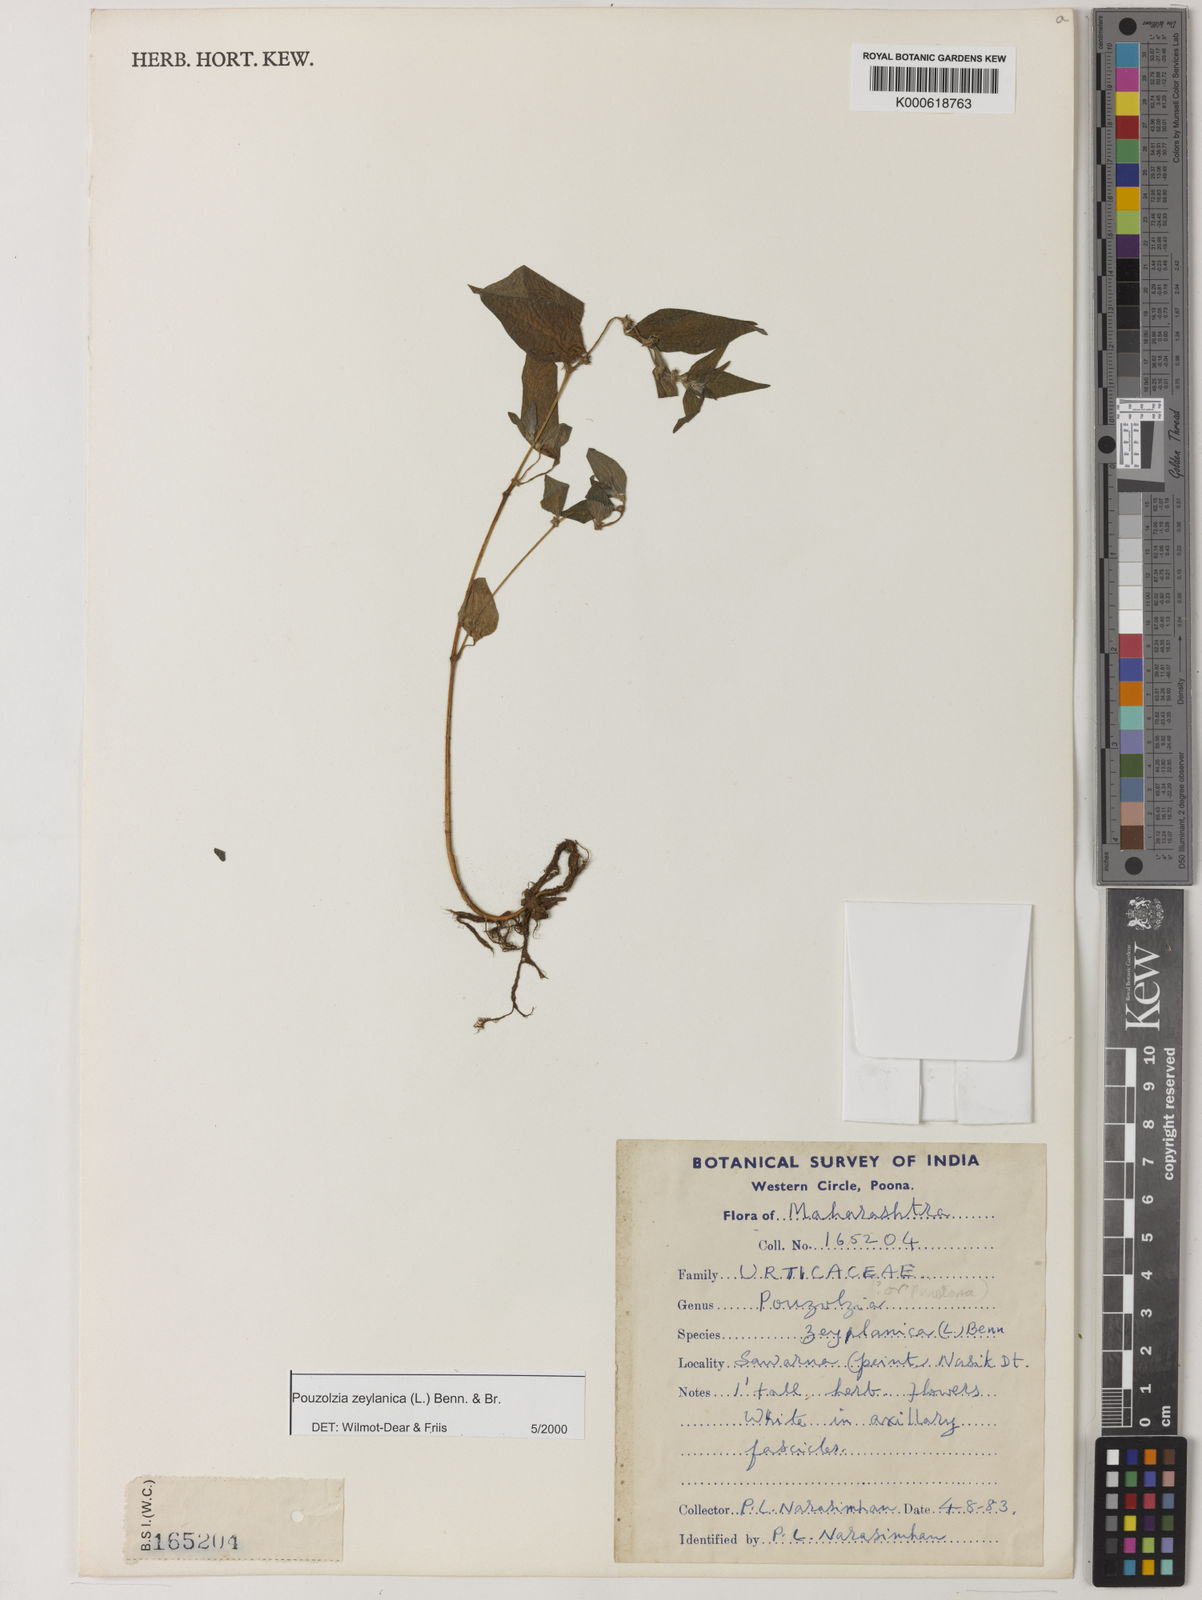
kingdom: Plantae
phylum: Tracheophyta
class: Magnoliopsida
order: Rosales
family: Urticaceae
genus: Pouzolzia
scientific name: Pouzolzia zeylanica
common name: Graceful pouzolzsbush
